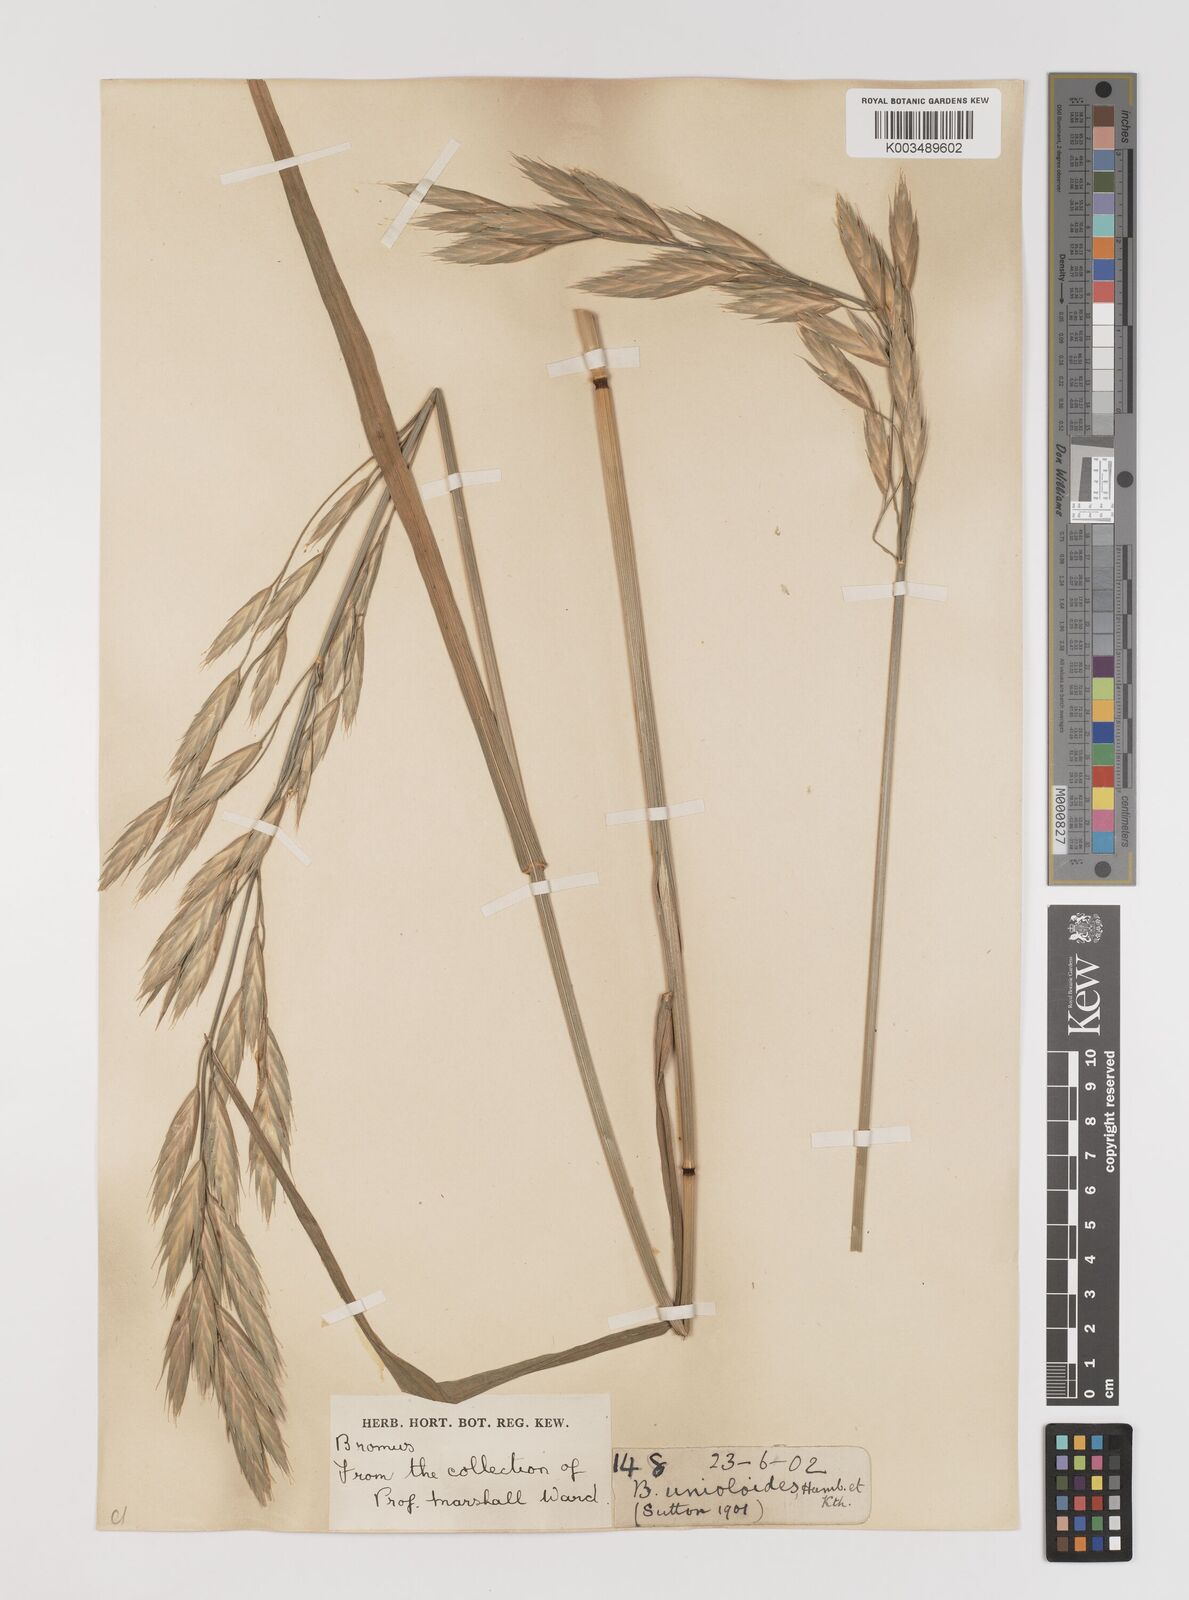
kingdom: Plantae
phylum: Tracheophyta
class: Liliopsida
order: Poales
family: Poaceae
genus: Bromus
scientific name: Bromus catharticus
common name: Rescuegrass
